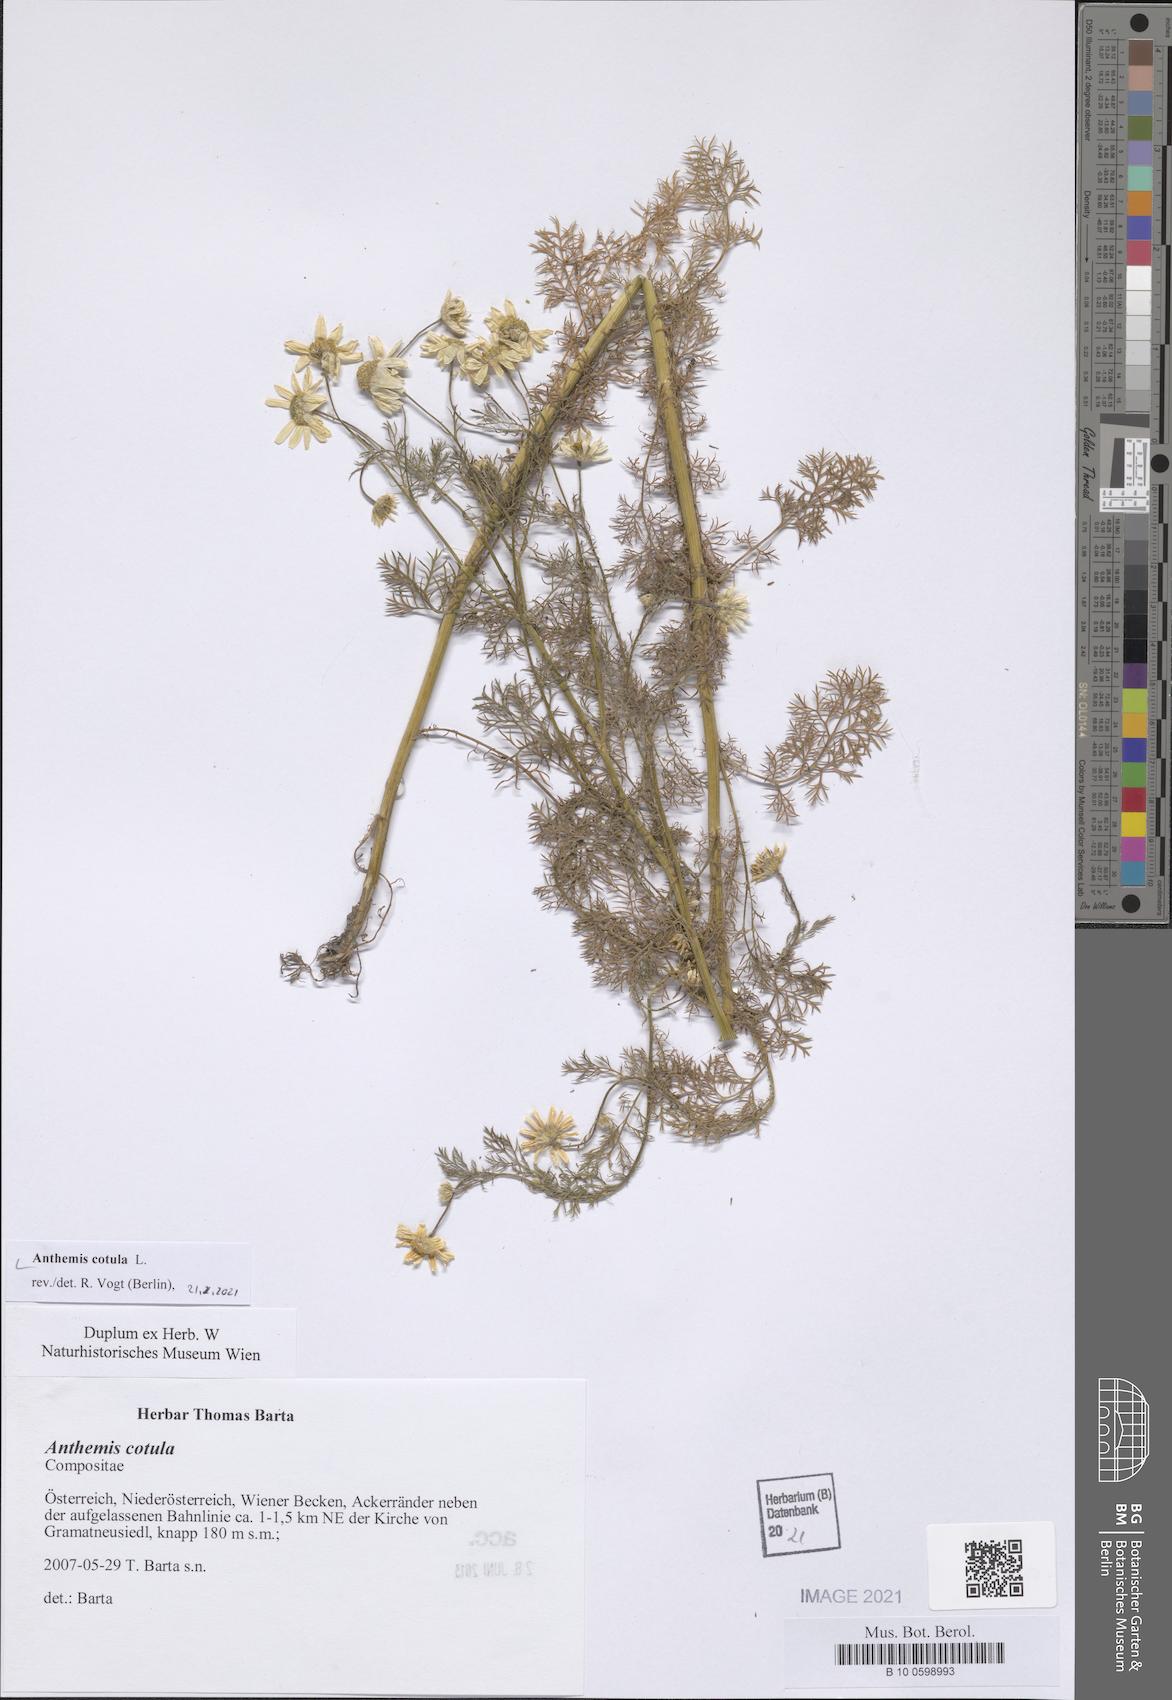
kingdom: Plantae
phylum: Tracheophyta
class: Magnoliopsida
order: Asterales
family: Asteraceae
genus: Anthemis
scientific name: Anthemis cotula
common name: Stinking chamomile
